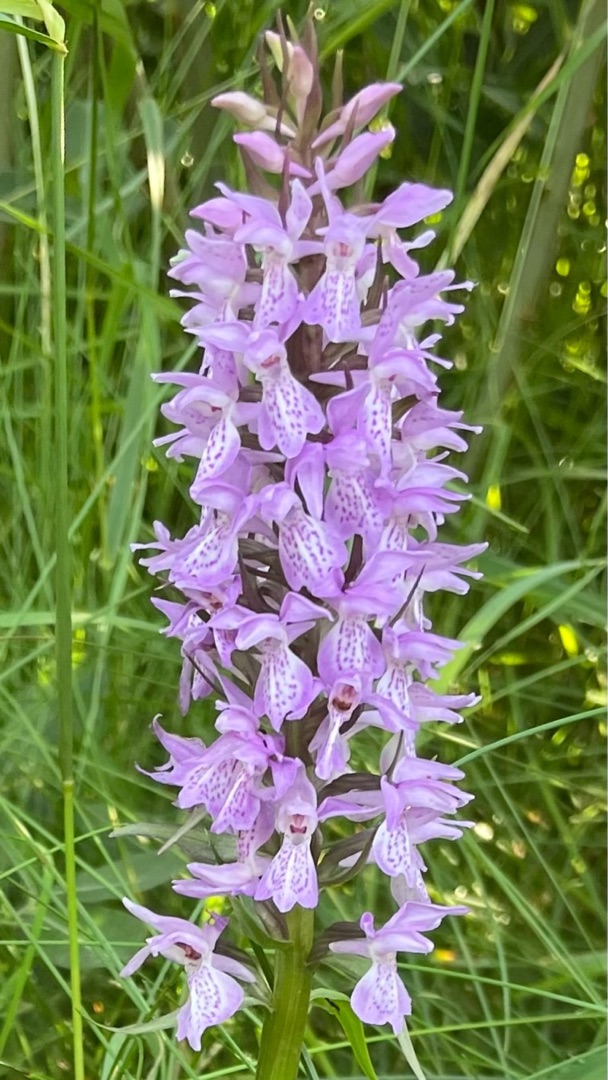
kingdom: Plantae
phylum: Tracheophyta
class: Liliopsida
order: Asparagales
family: Orchidaceae
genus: Dactylorhiza
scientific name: Dactylorhiza majalis
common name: Priklæbet gøgeurt
